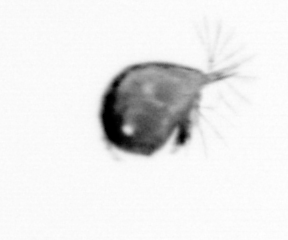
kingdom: Animalia
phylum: Arthropoda
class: Maxillopoda
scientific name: Maxillopoda
